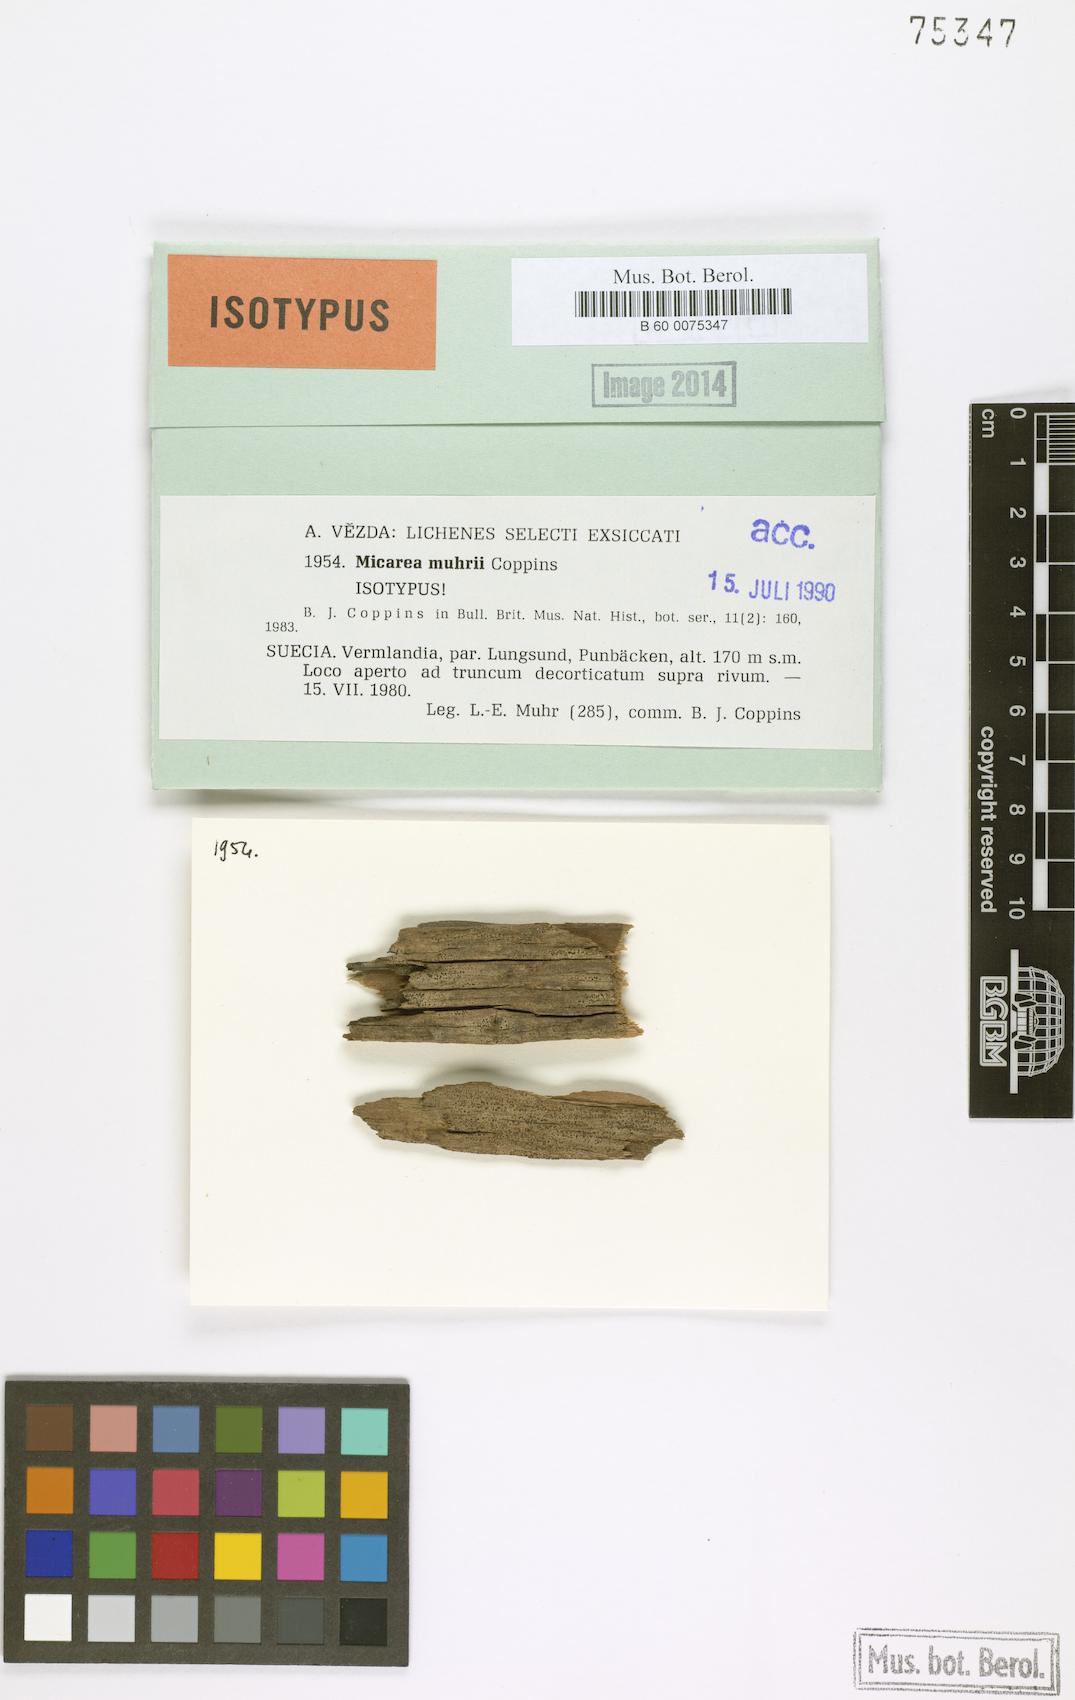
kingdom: Fungi
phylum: Ascomycota
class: Lecanoromycetes
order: Lecanorales
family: Byssolomataceae
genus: Micarea
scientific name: Micarea vulpinaris
